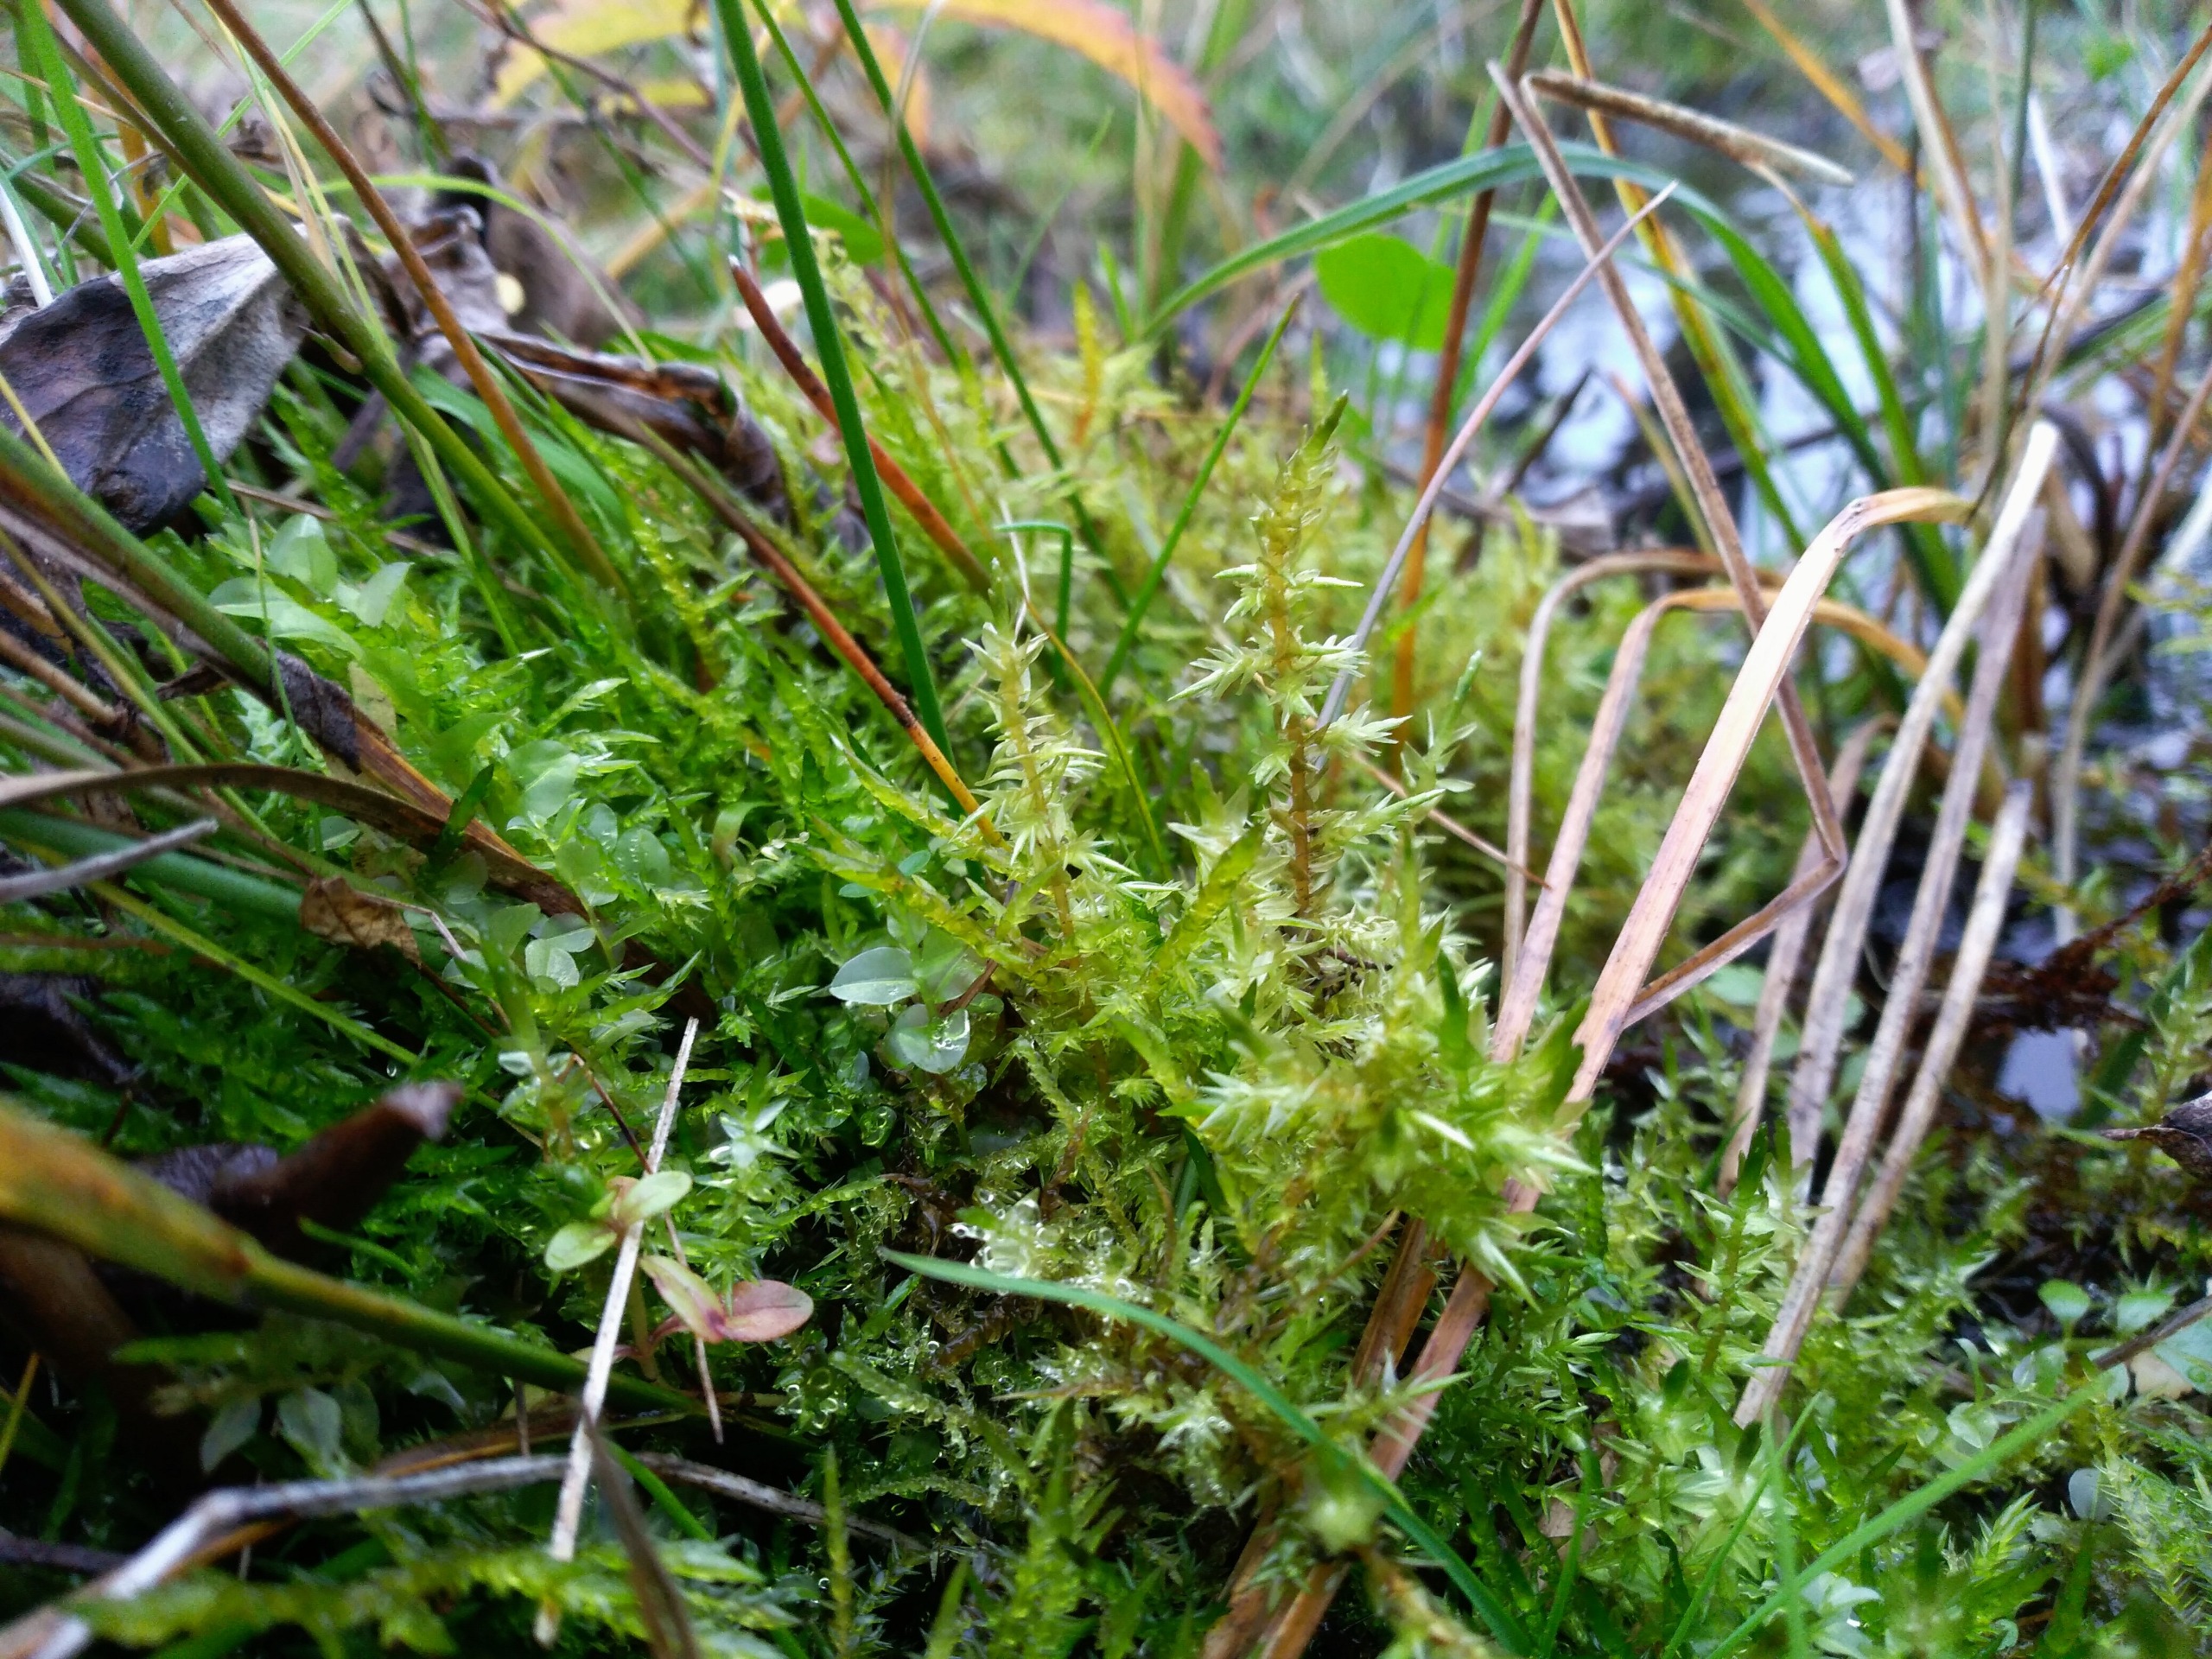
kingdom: Plantae
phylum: Bryophyta
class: Bryopsida
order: Hypnales
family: Calliergonaceae
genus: Calliergon
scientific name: Calliergon giganteum
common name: Stor skebladsmos
